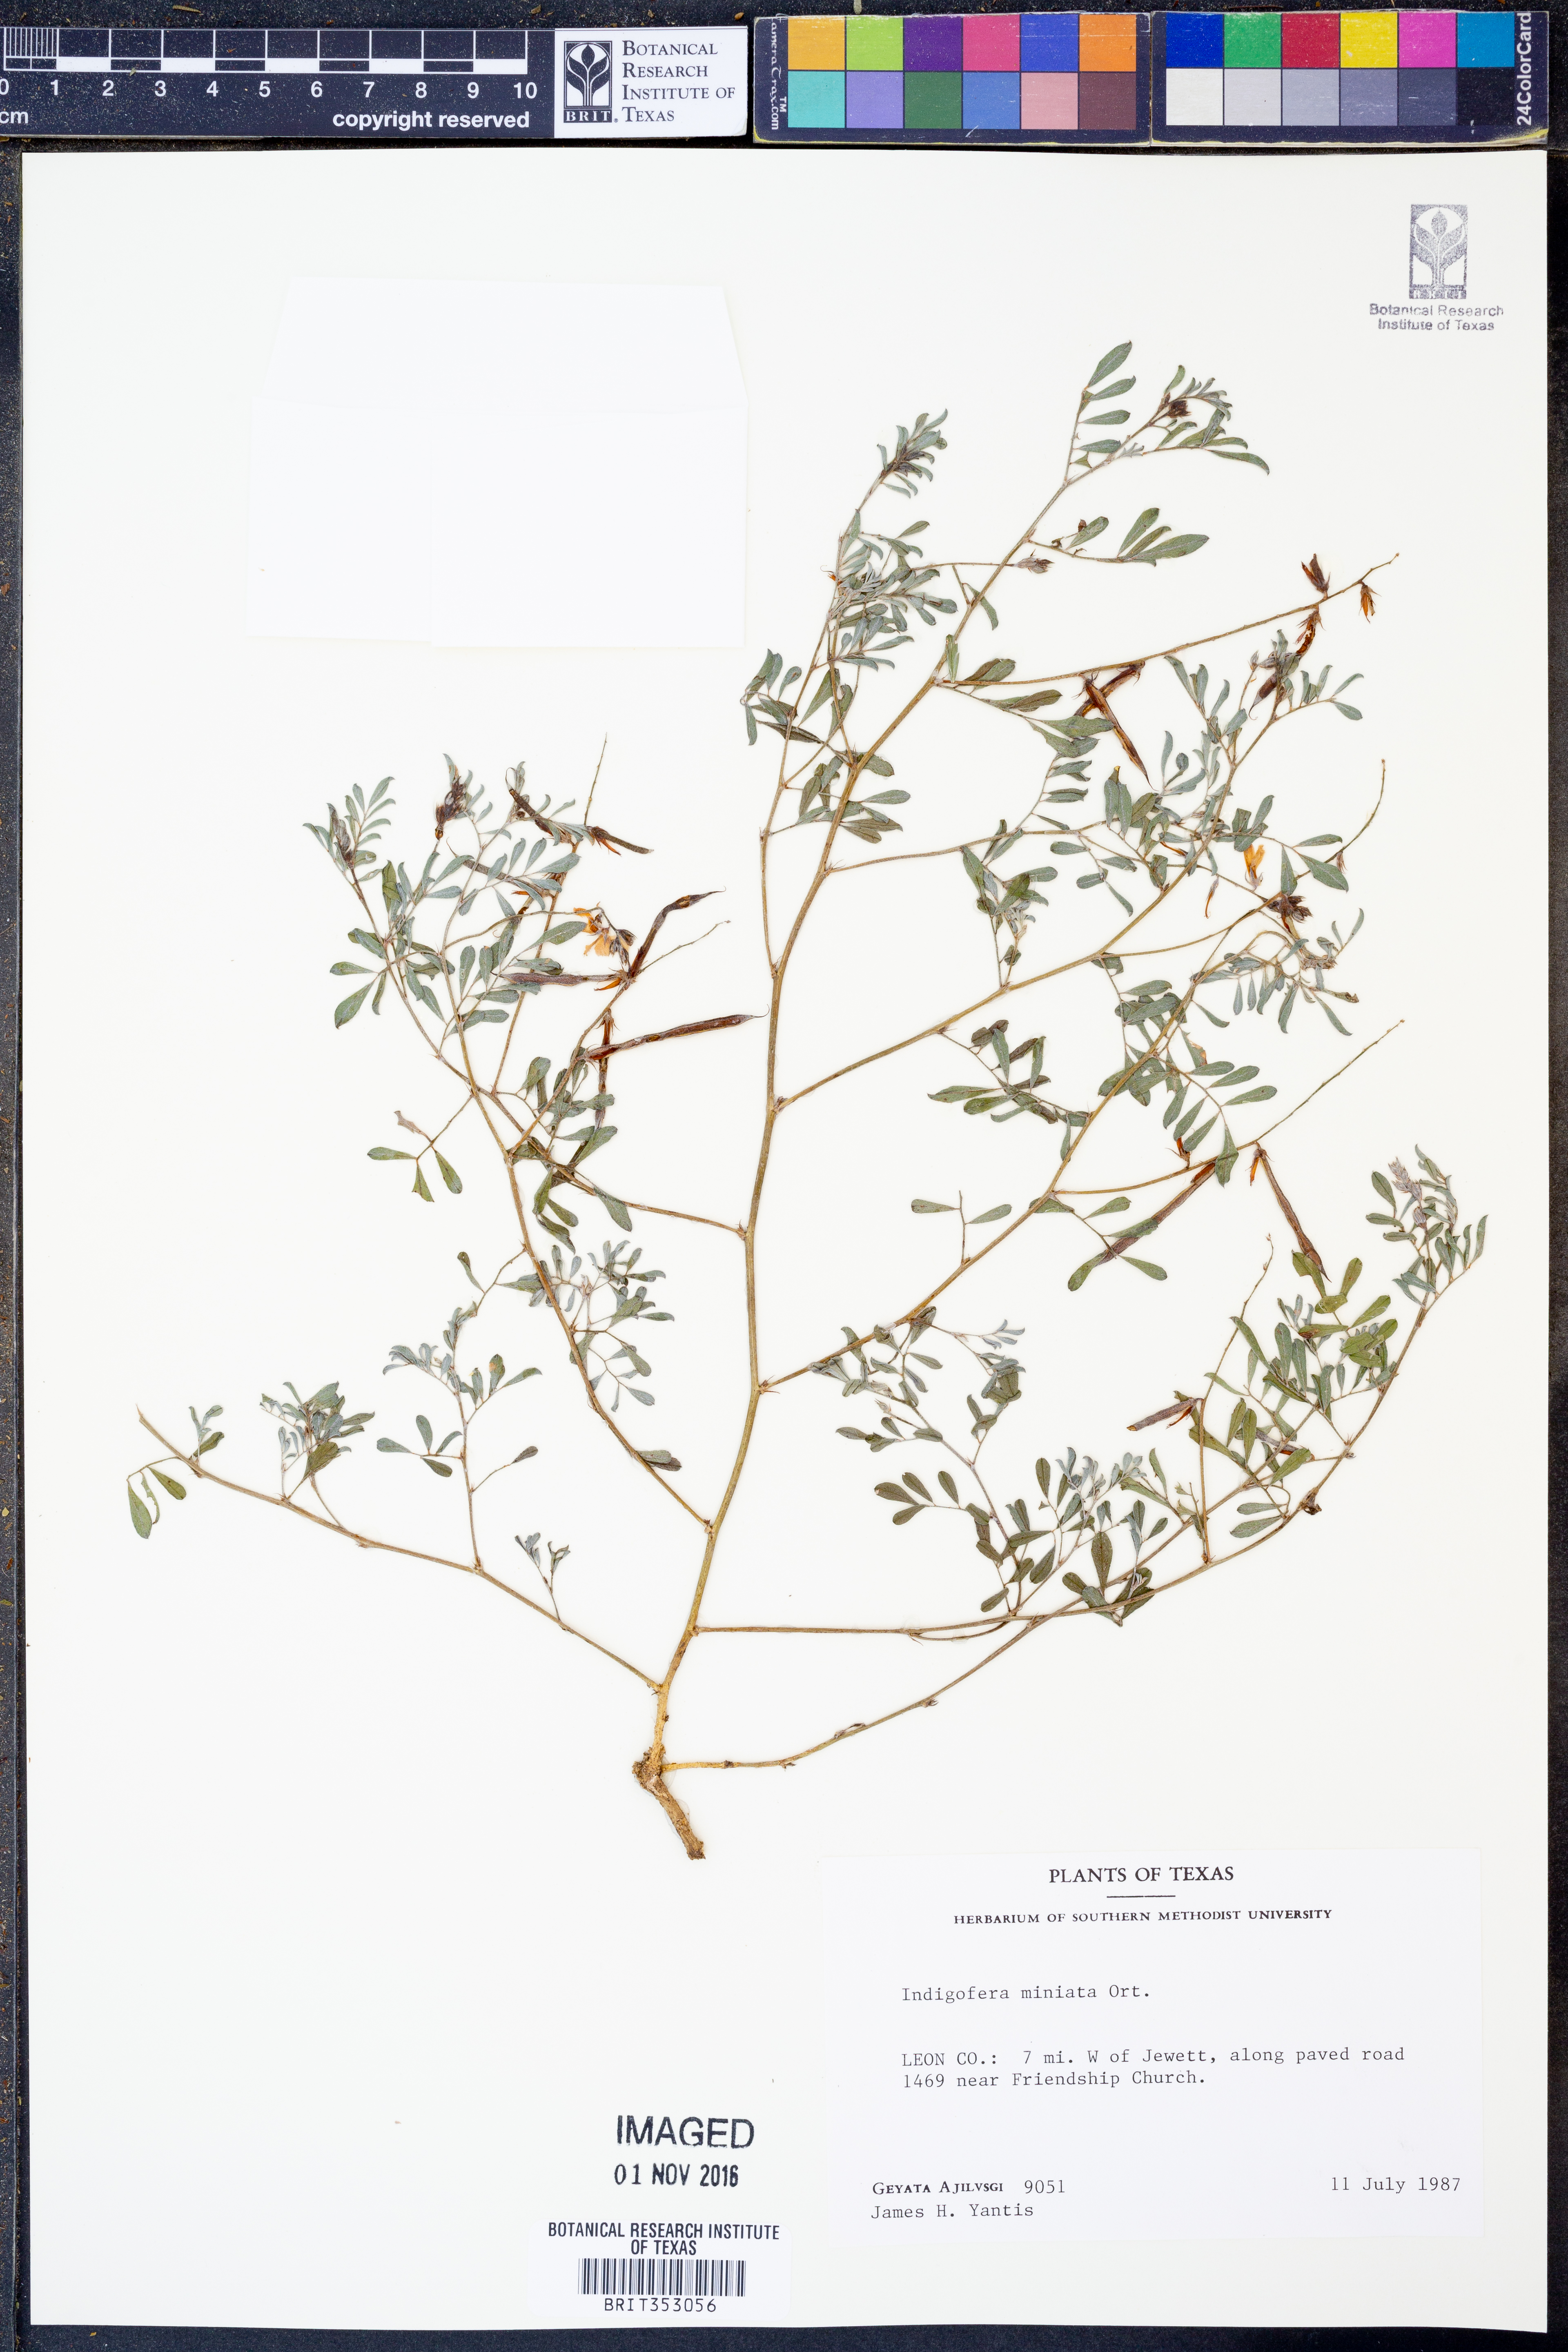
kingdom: Plantae
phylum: Tracheophyta
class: Magnoliopsida
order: Fabales
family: Fabaceae
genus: Indigofera
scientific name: Indigofera miniata
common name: Coast indigo
